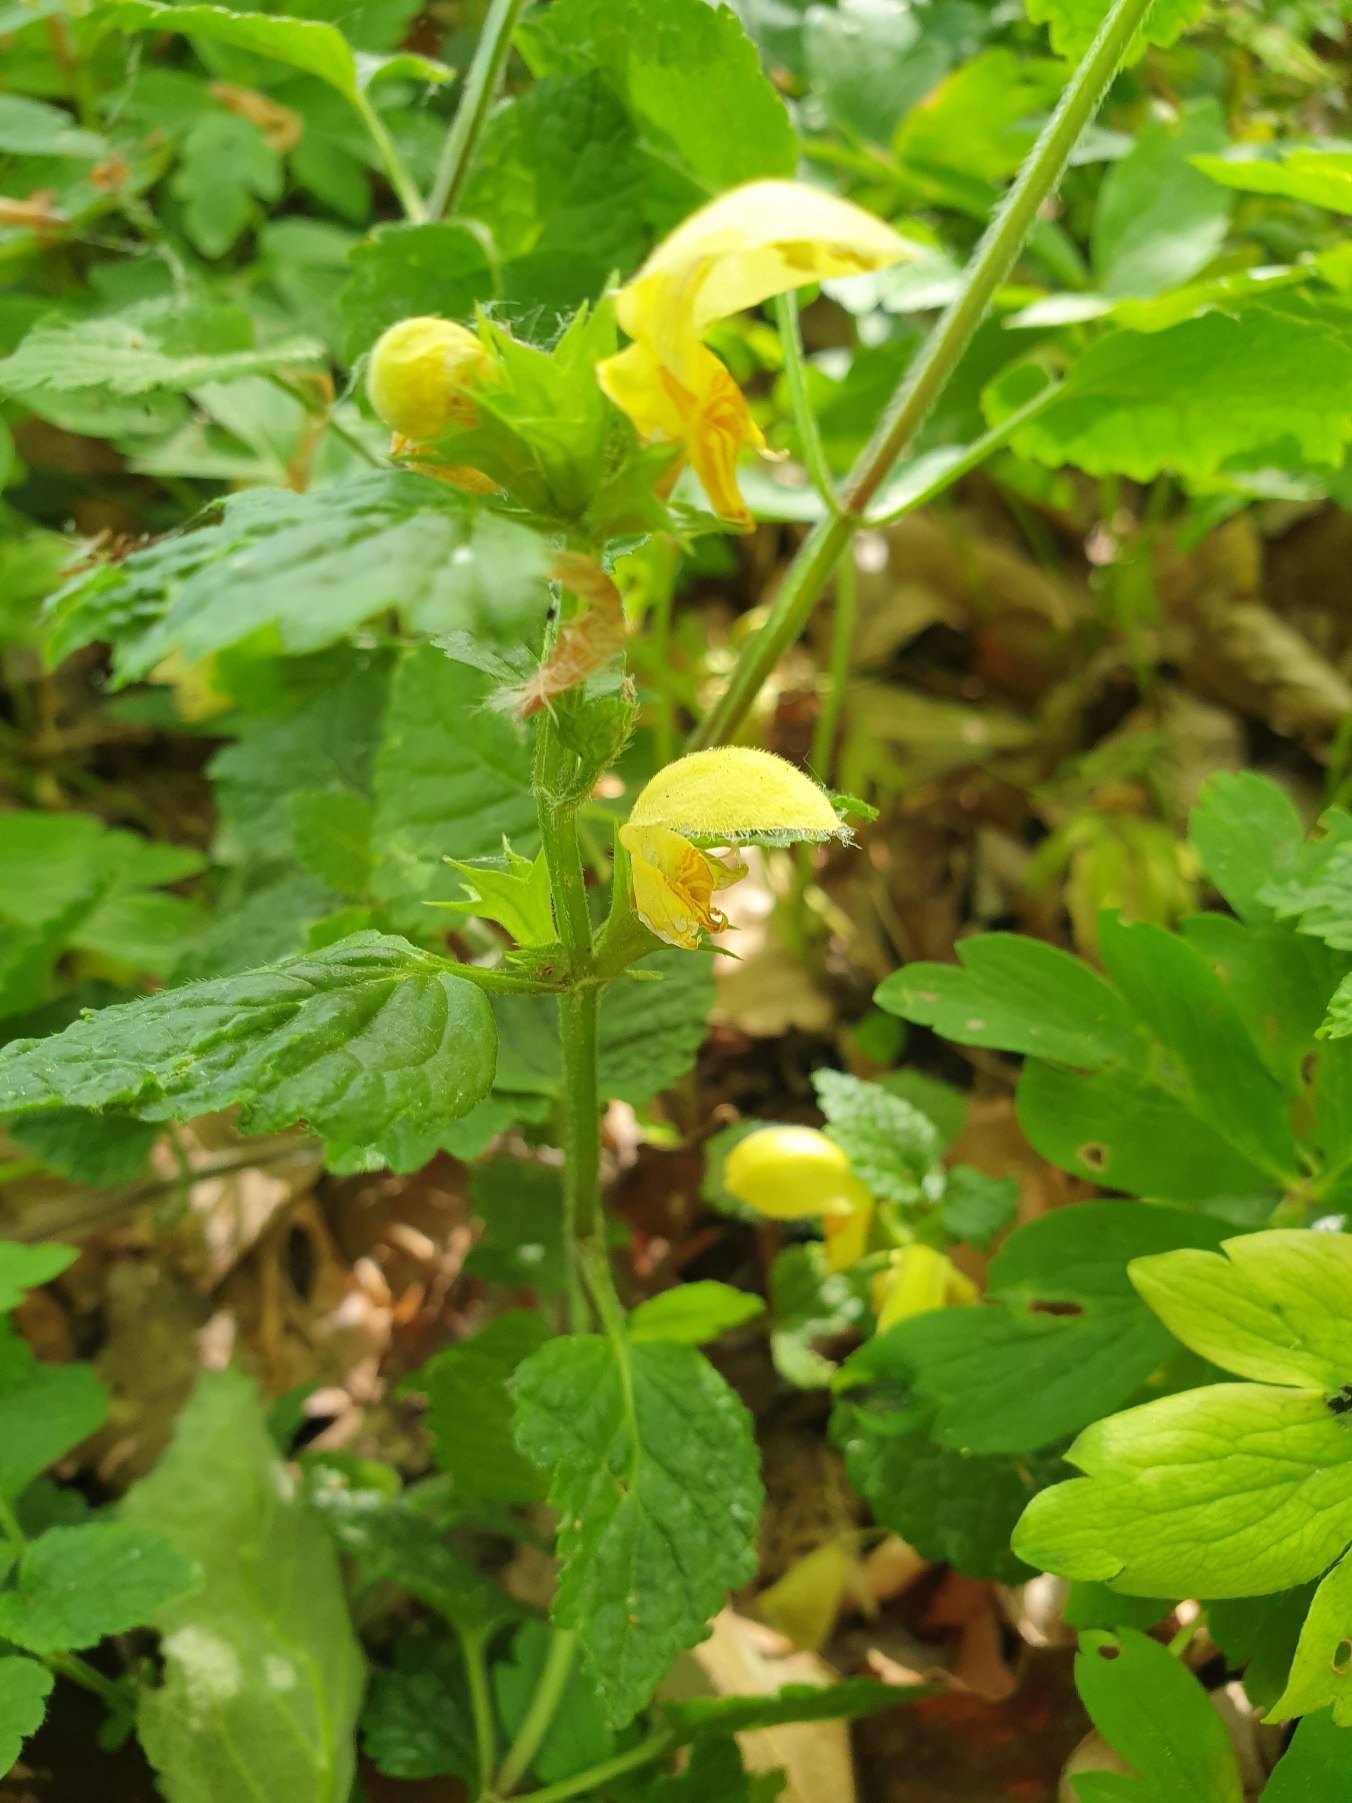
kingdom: Plantae
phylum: Tracheophyta
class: Magnoliopsida
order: Lamiales
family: Lamiaceae
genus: Lamium
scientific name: Lamium galeobdolon
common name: Guldnælde
